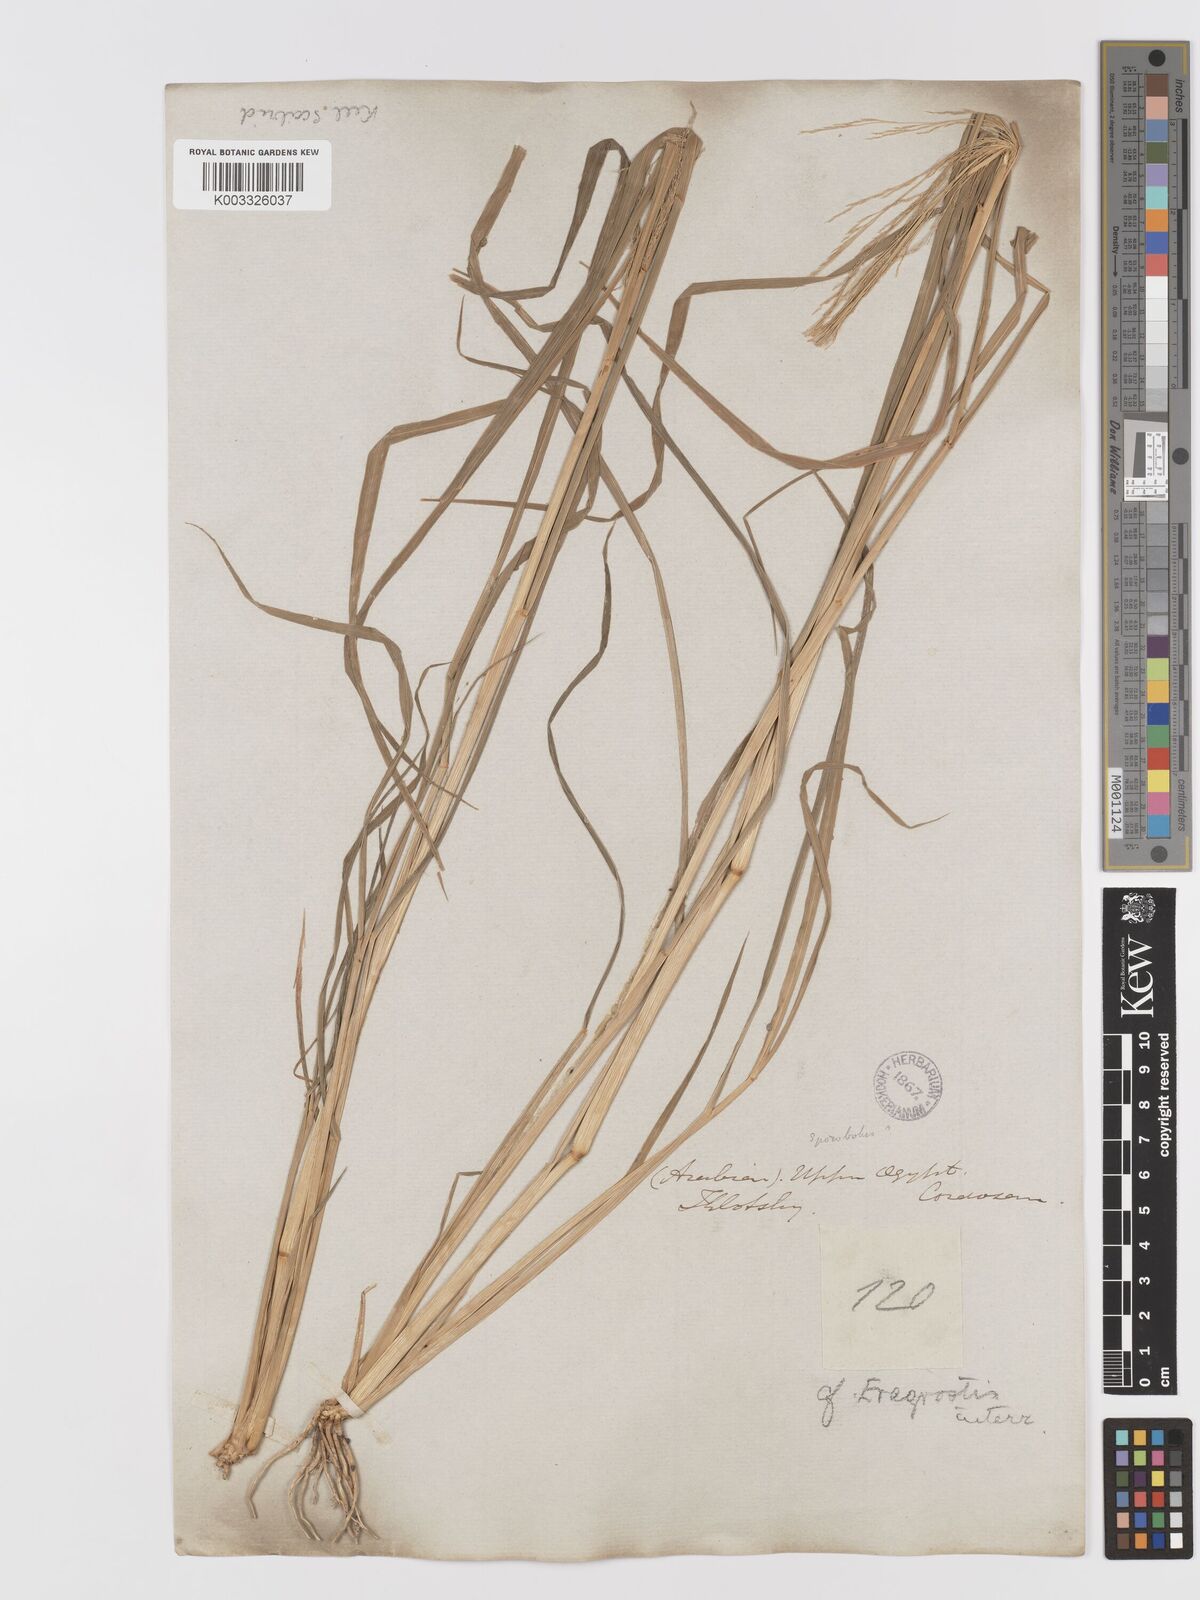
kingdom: Plantae
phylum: Tracheophyta
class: Liliopsida
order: Poales
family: Poaceae
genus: Eragrostis
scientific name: Eragrostis japonica
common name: Pond lovegrass
